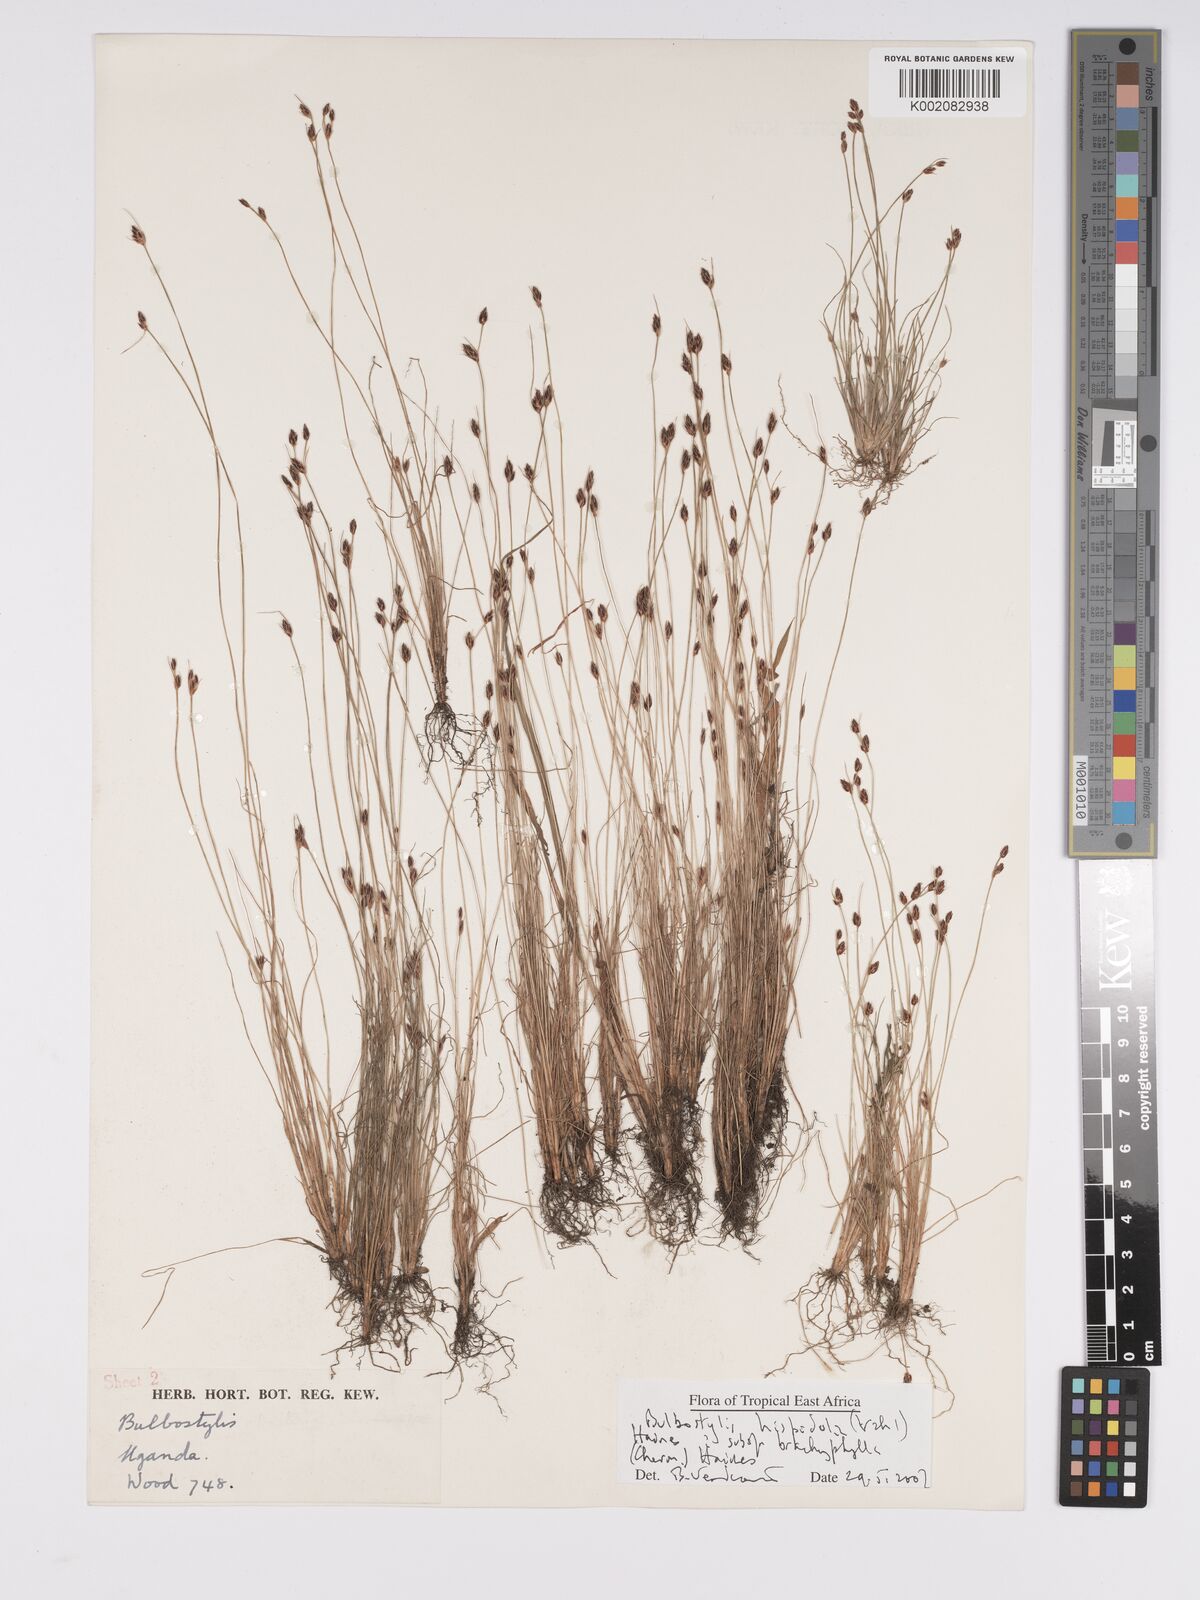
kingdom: Plantae
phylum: Tracheophyta
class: Liliopsida
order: Poales
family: Cyperaceae
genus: Bulbostylis
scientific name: Bulbostylis hispidula
